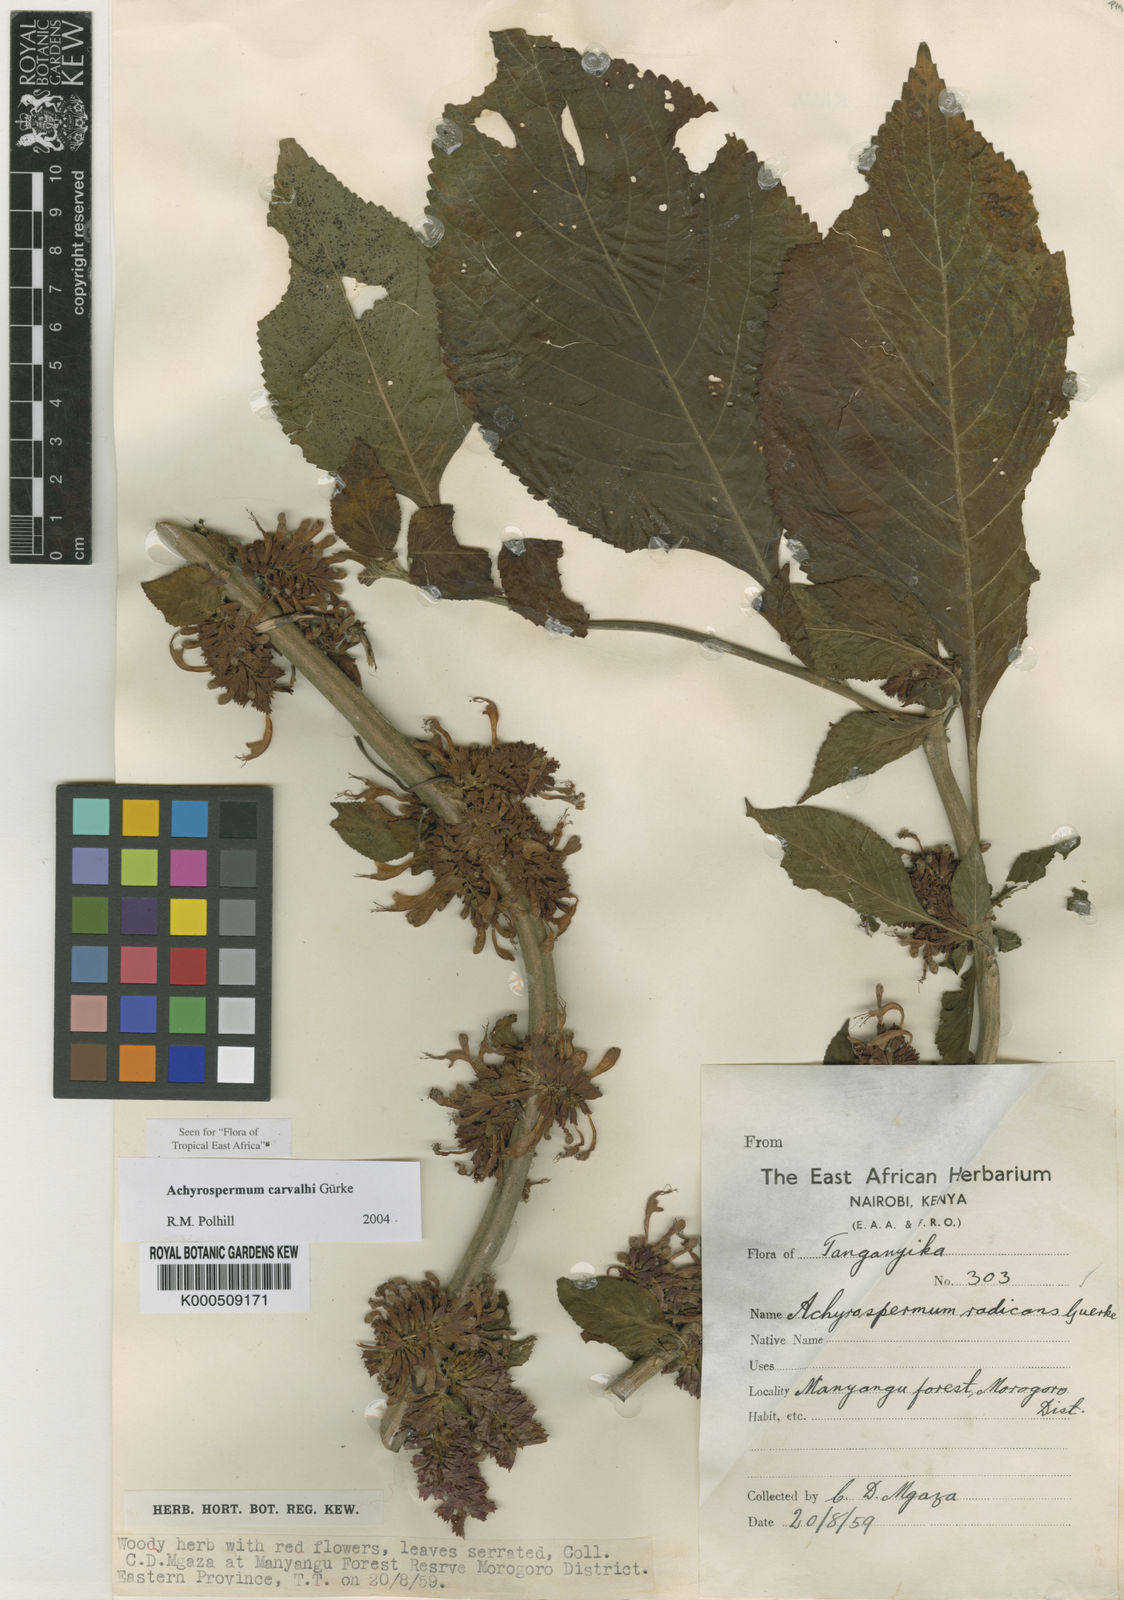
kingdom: Plantae
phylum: Tracheophyta
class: Magnoliopsida
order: Lamiales
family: Lamiaceae
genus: Achyrospermum
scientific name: Achyrospermum
